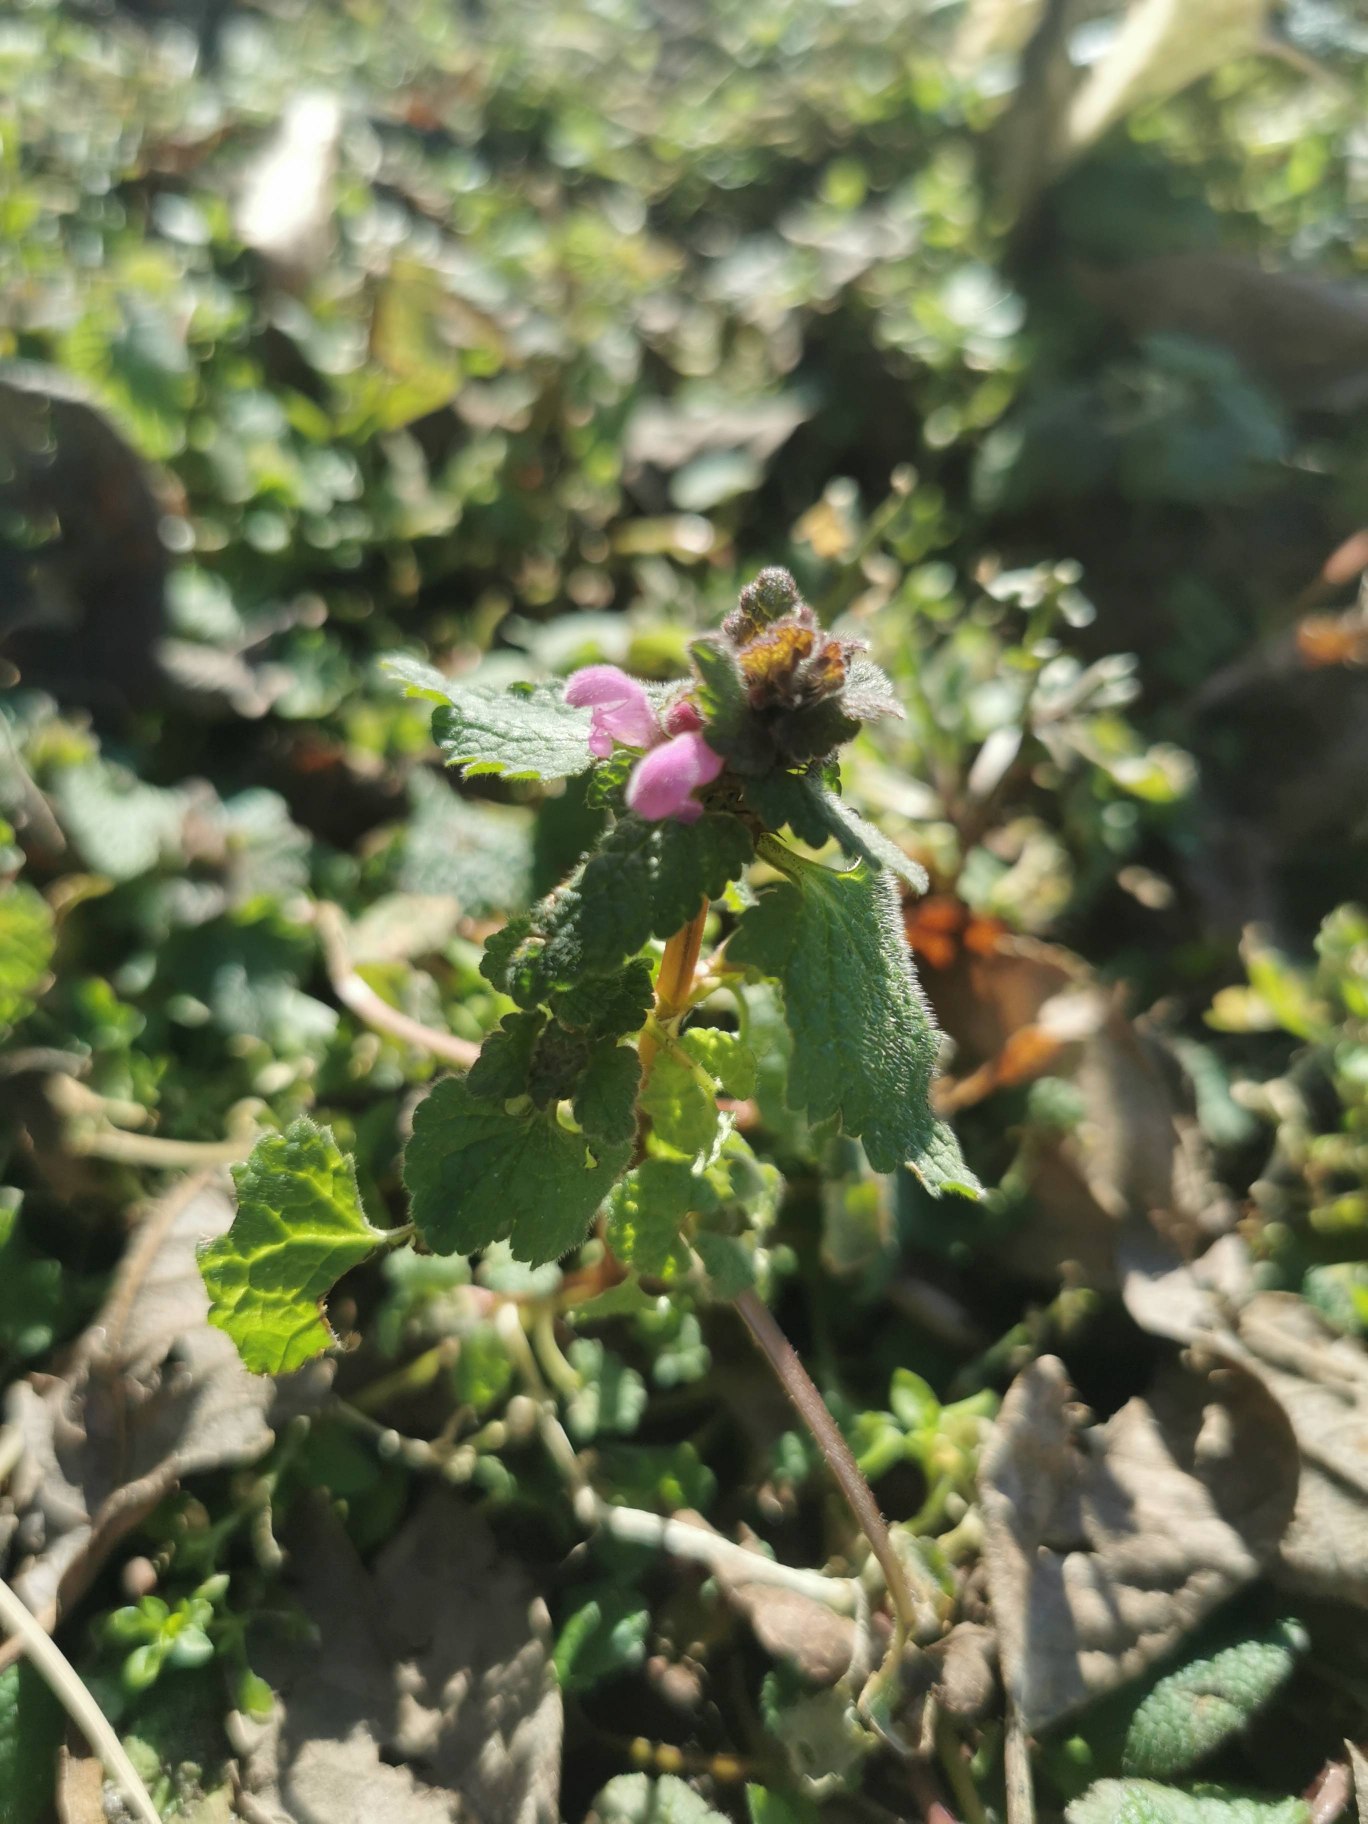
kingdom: Plantae
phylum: Tracheophyta
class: Magnoliopsida
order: Lamiales
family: Lamiaceae
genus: Lamium
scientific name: Lamium purpureum
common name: Rød tvetand
